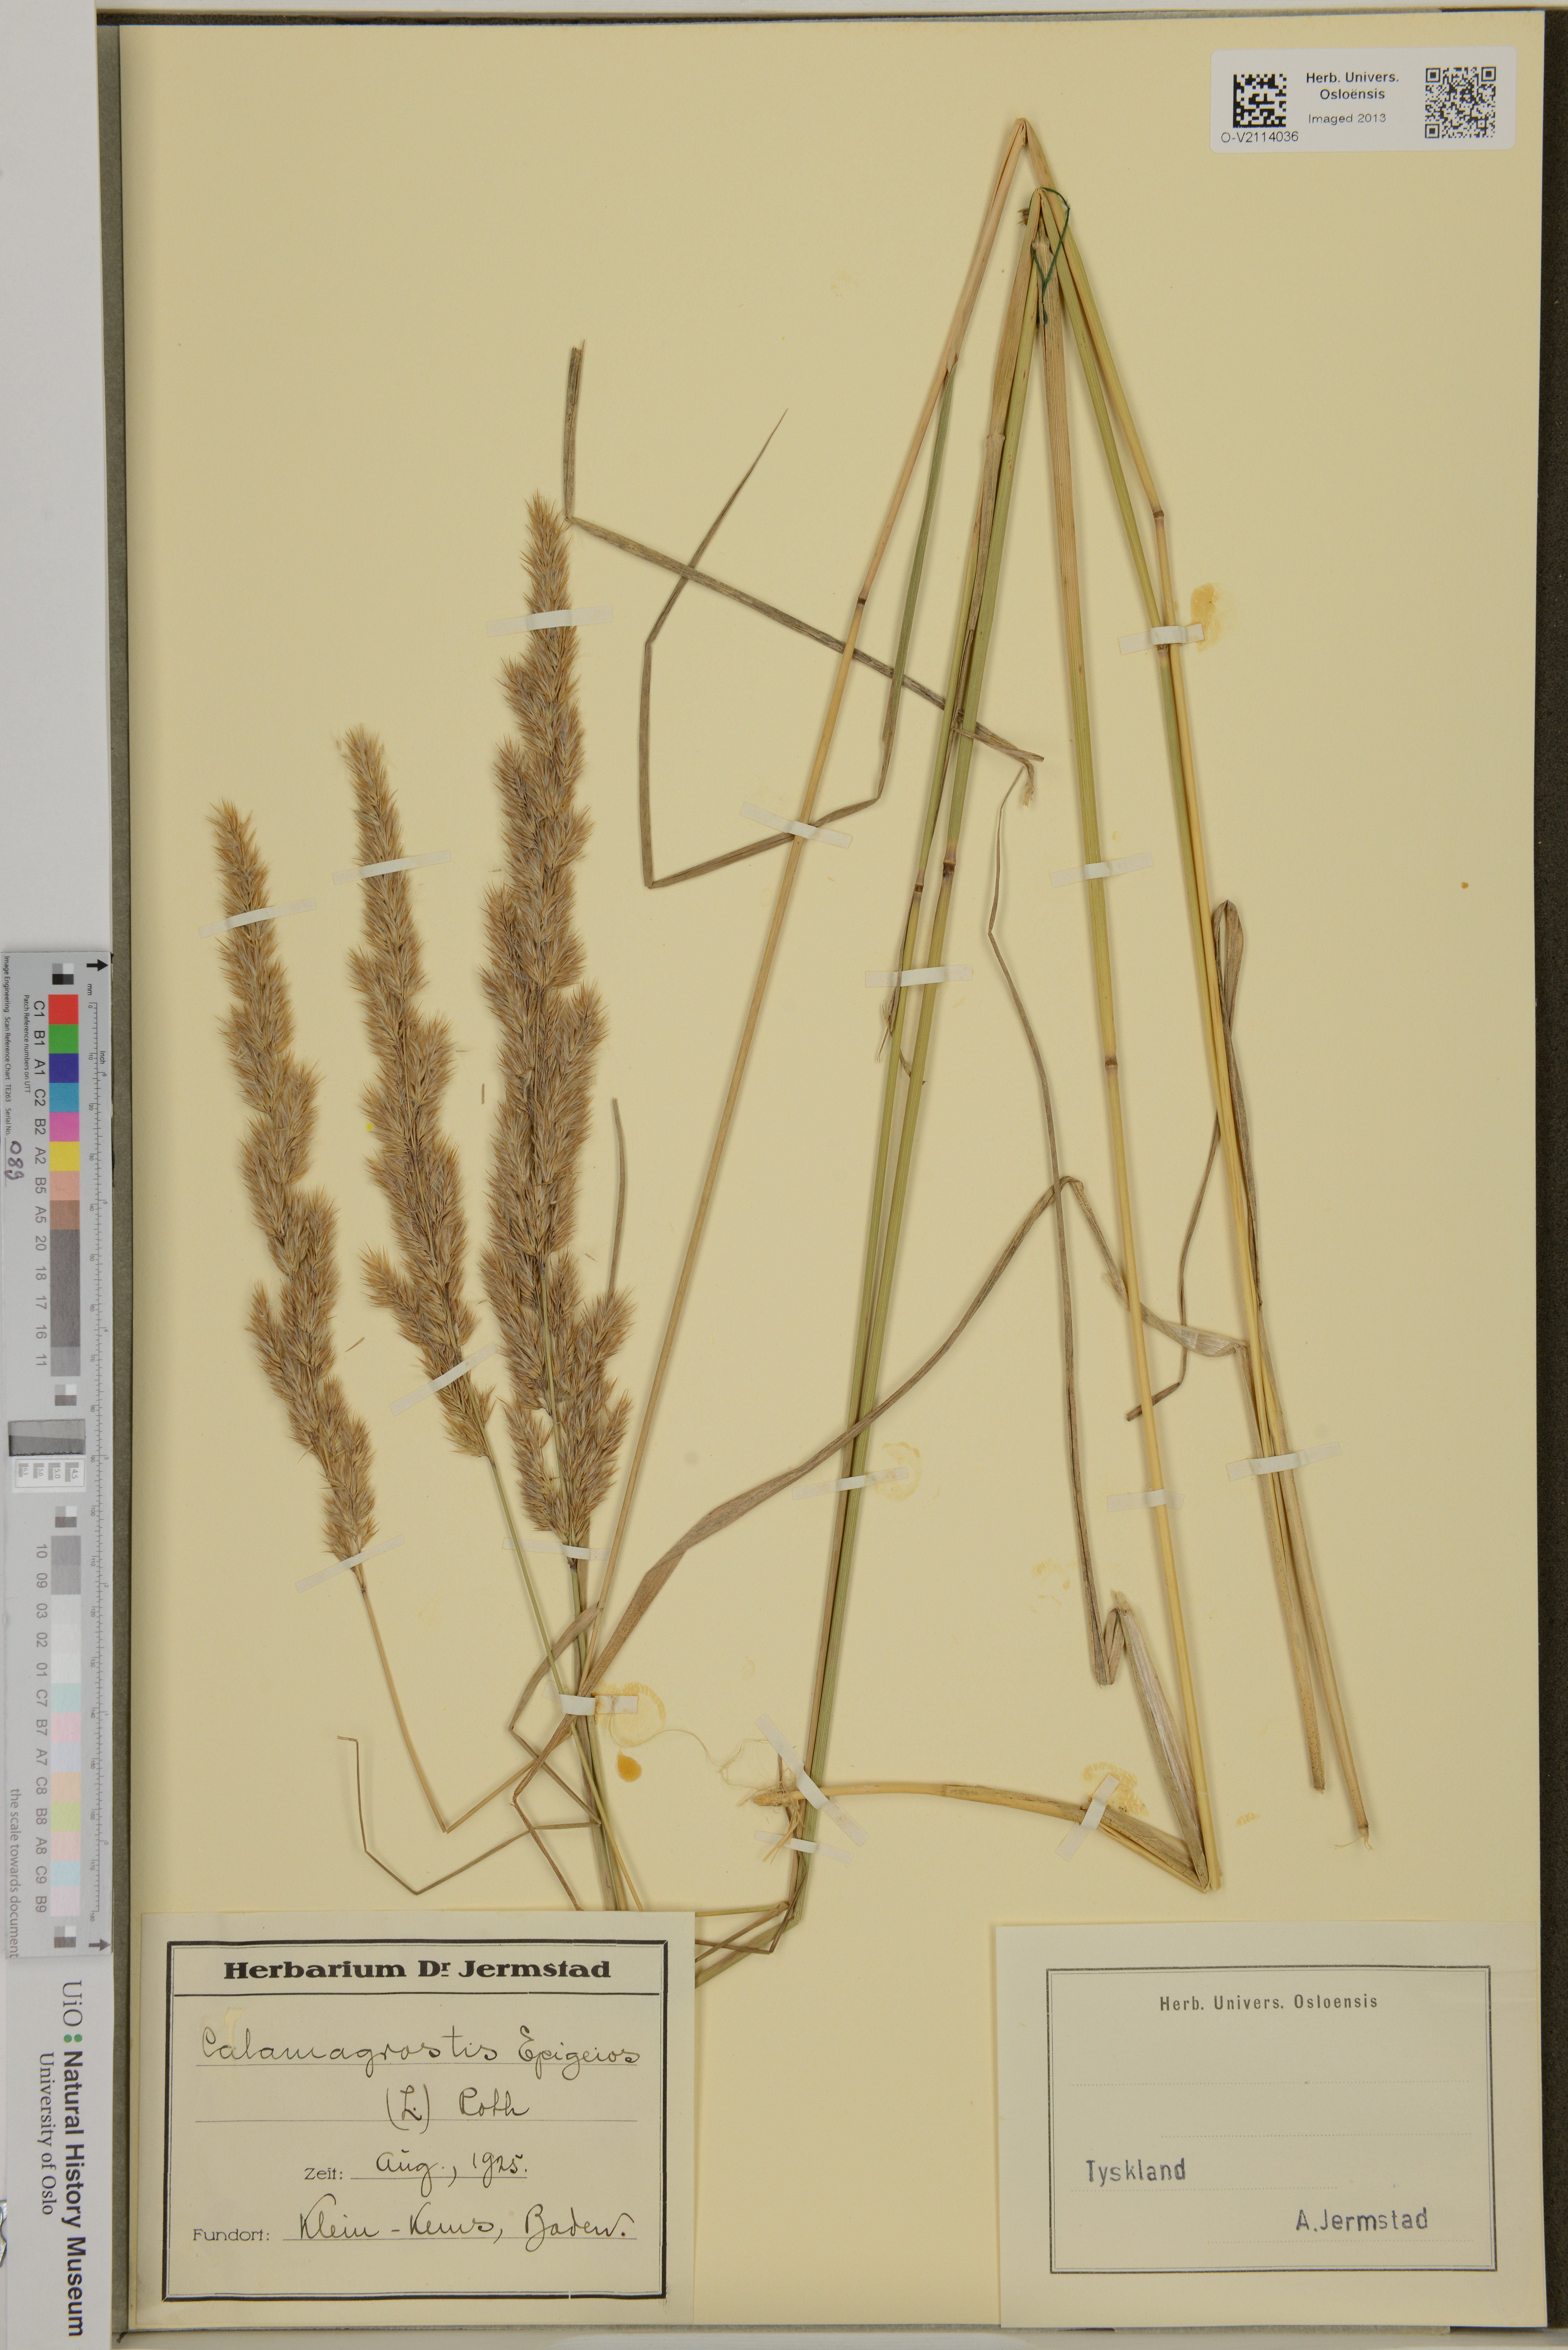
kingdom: Plantae
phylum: Tracheophyta
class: Liliopsida
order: Poales
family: Poaceae
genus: Calamagrostis
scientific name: Calamagrostis epigejos
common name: Wood small-reed
